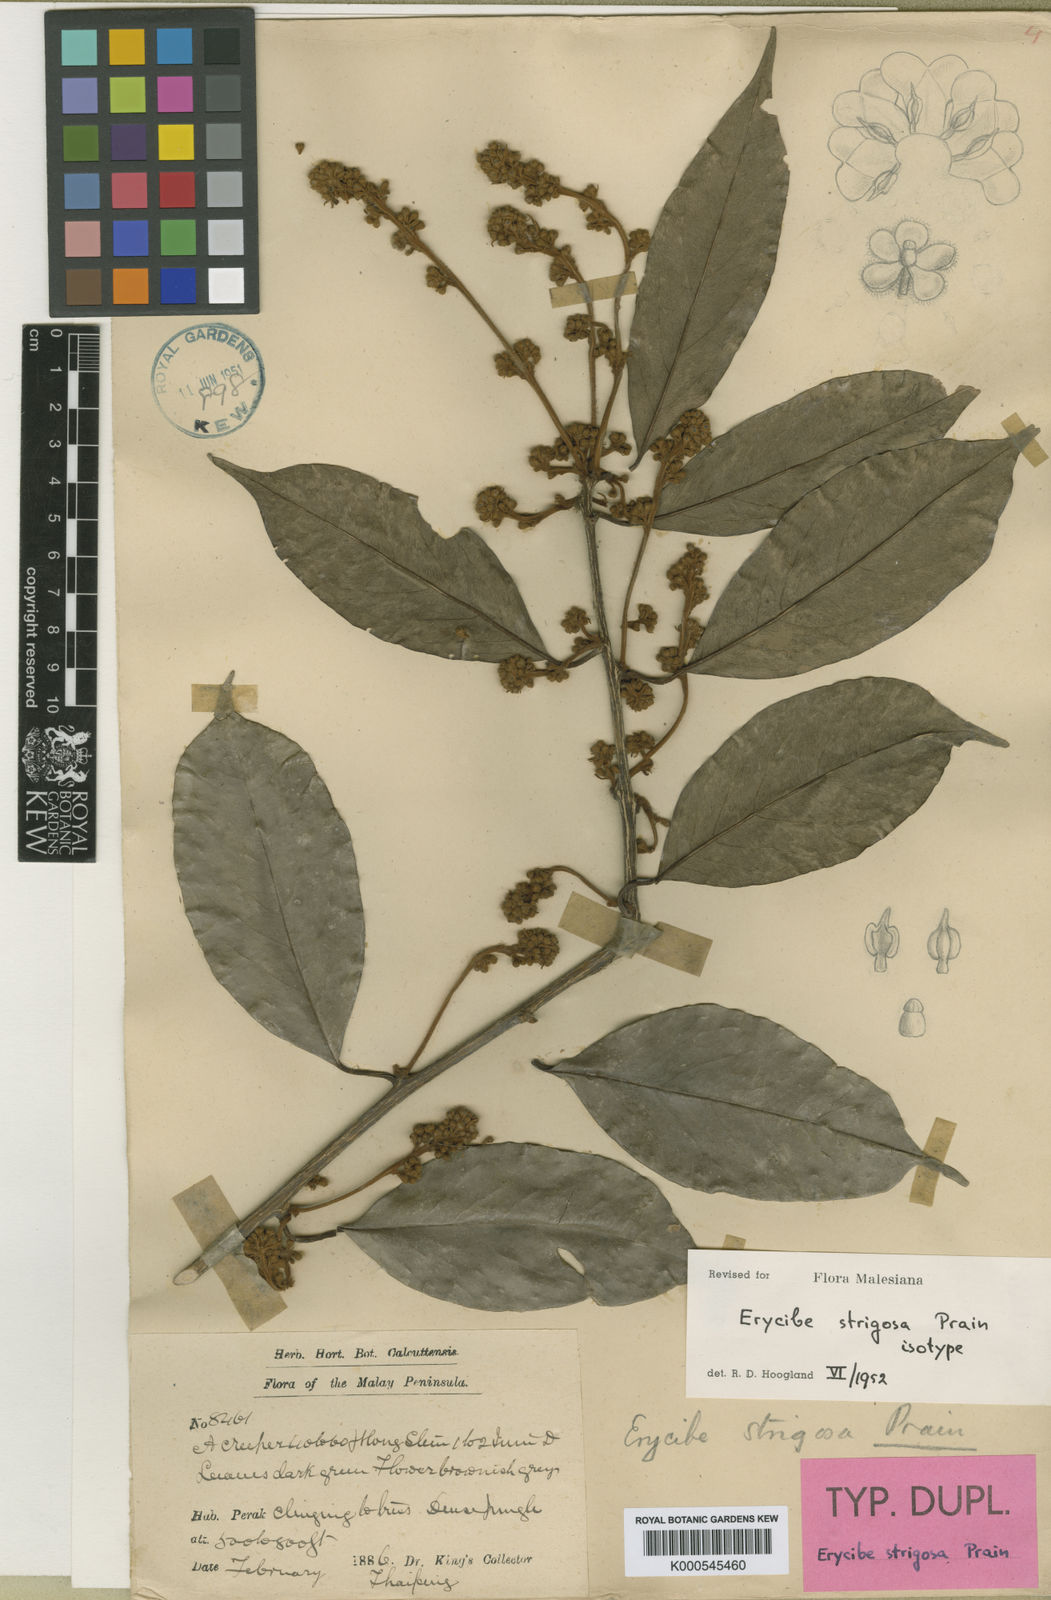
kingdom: Plantae
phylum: Tracheophyta
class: Magnoliopsida
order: Solanales
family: Convolvulaceae
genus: Erycibe
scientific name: Erycibe strigosa
